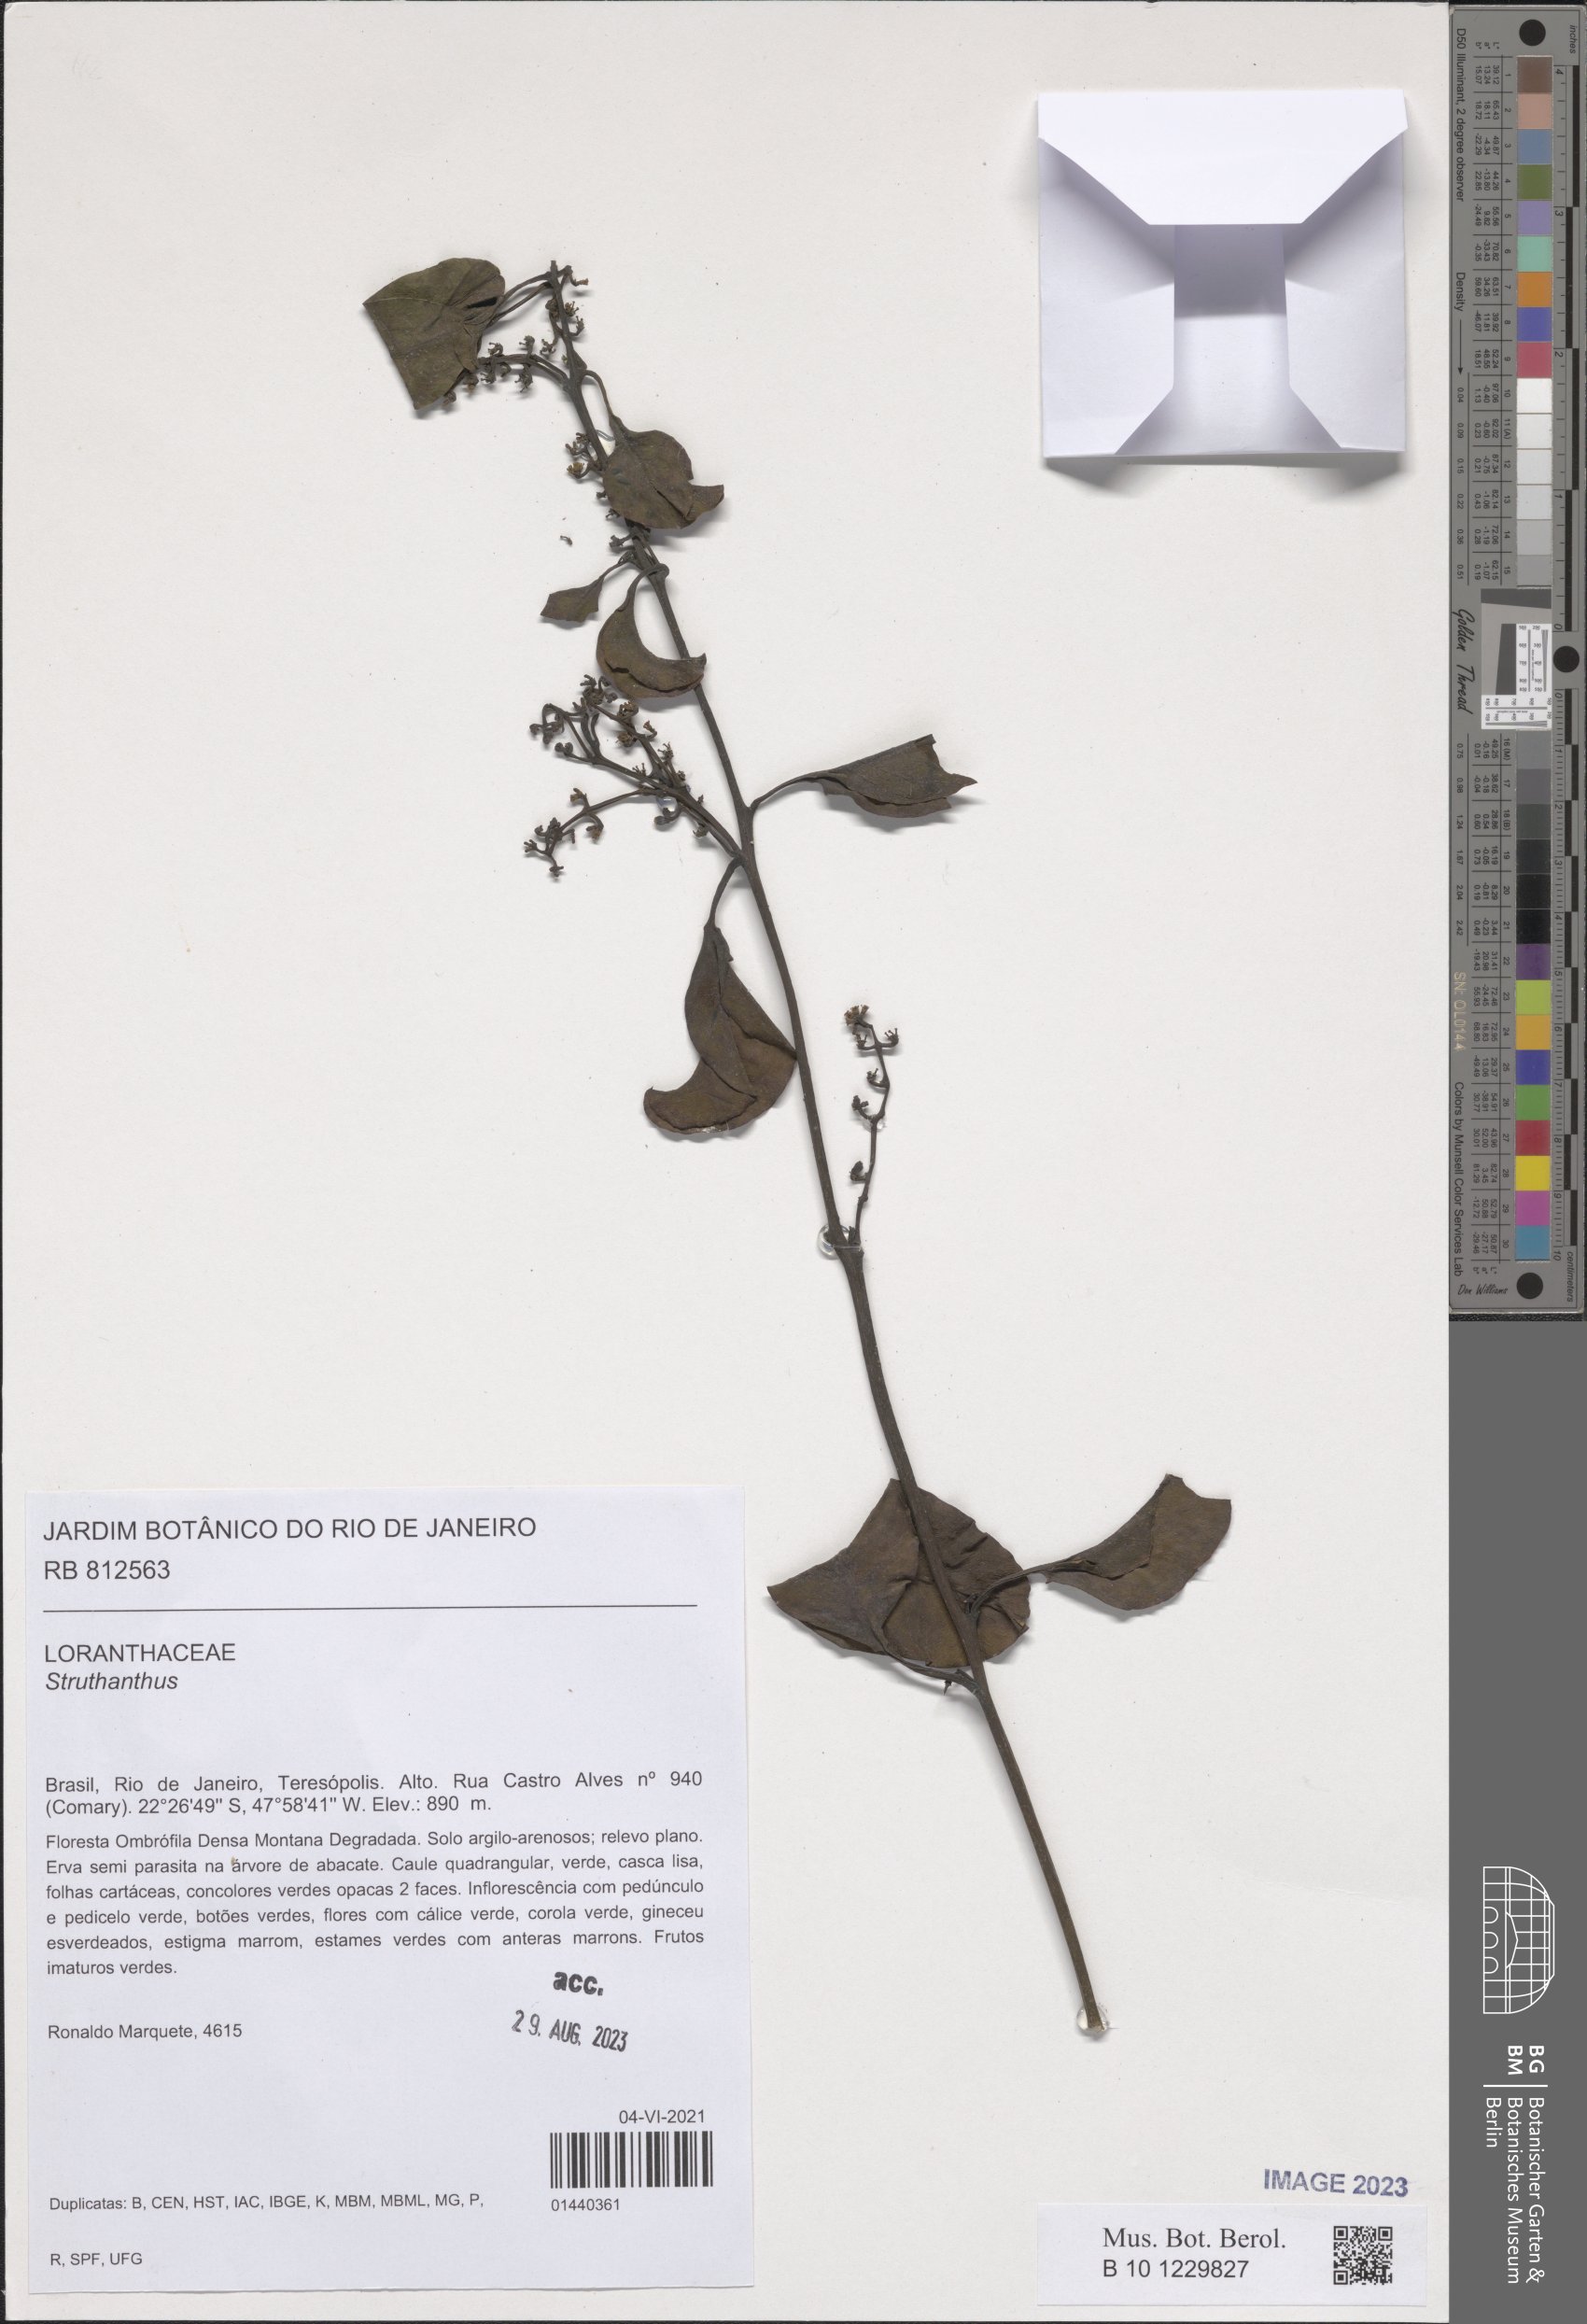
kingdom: Plantae
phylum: Tracheophyta
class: Magnoliopsida
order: Santalales
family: Loranthaceae
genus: Struthanthus
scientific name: Struthanthus
